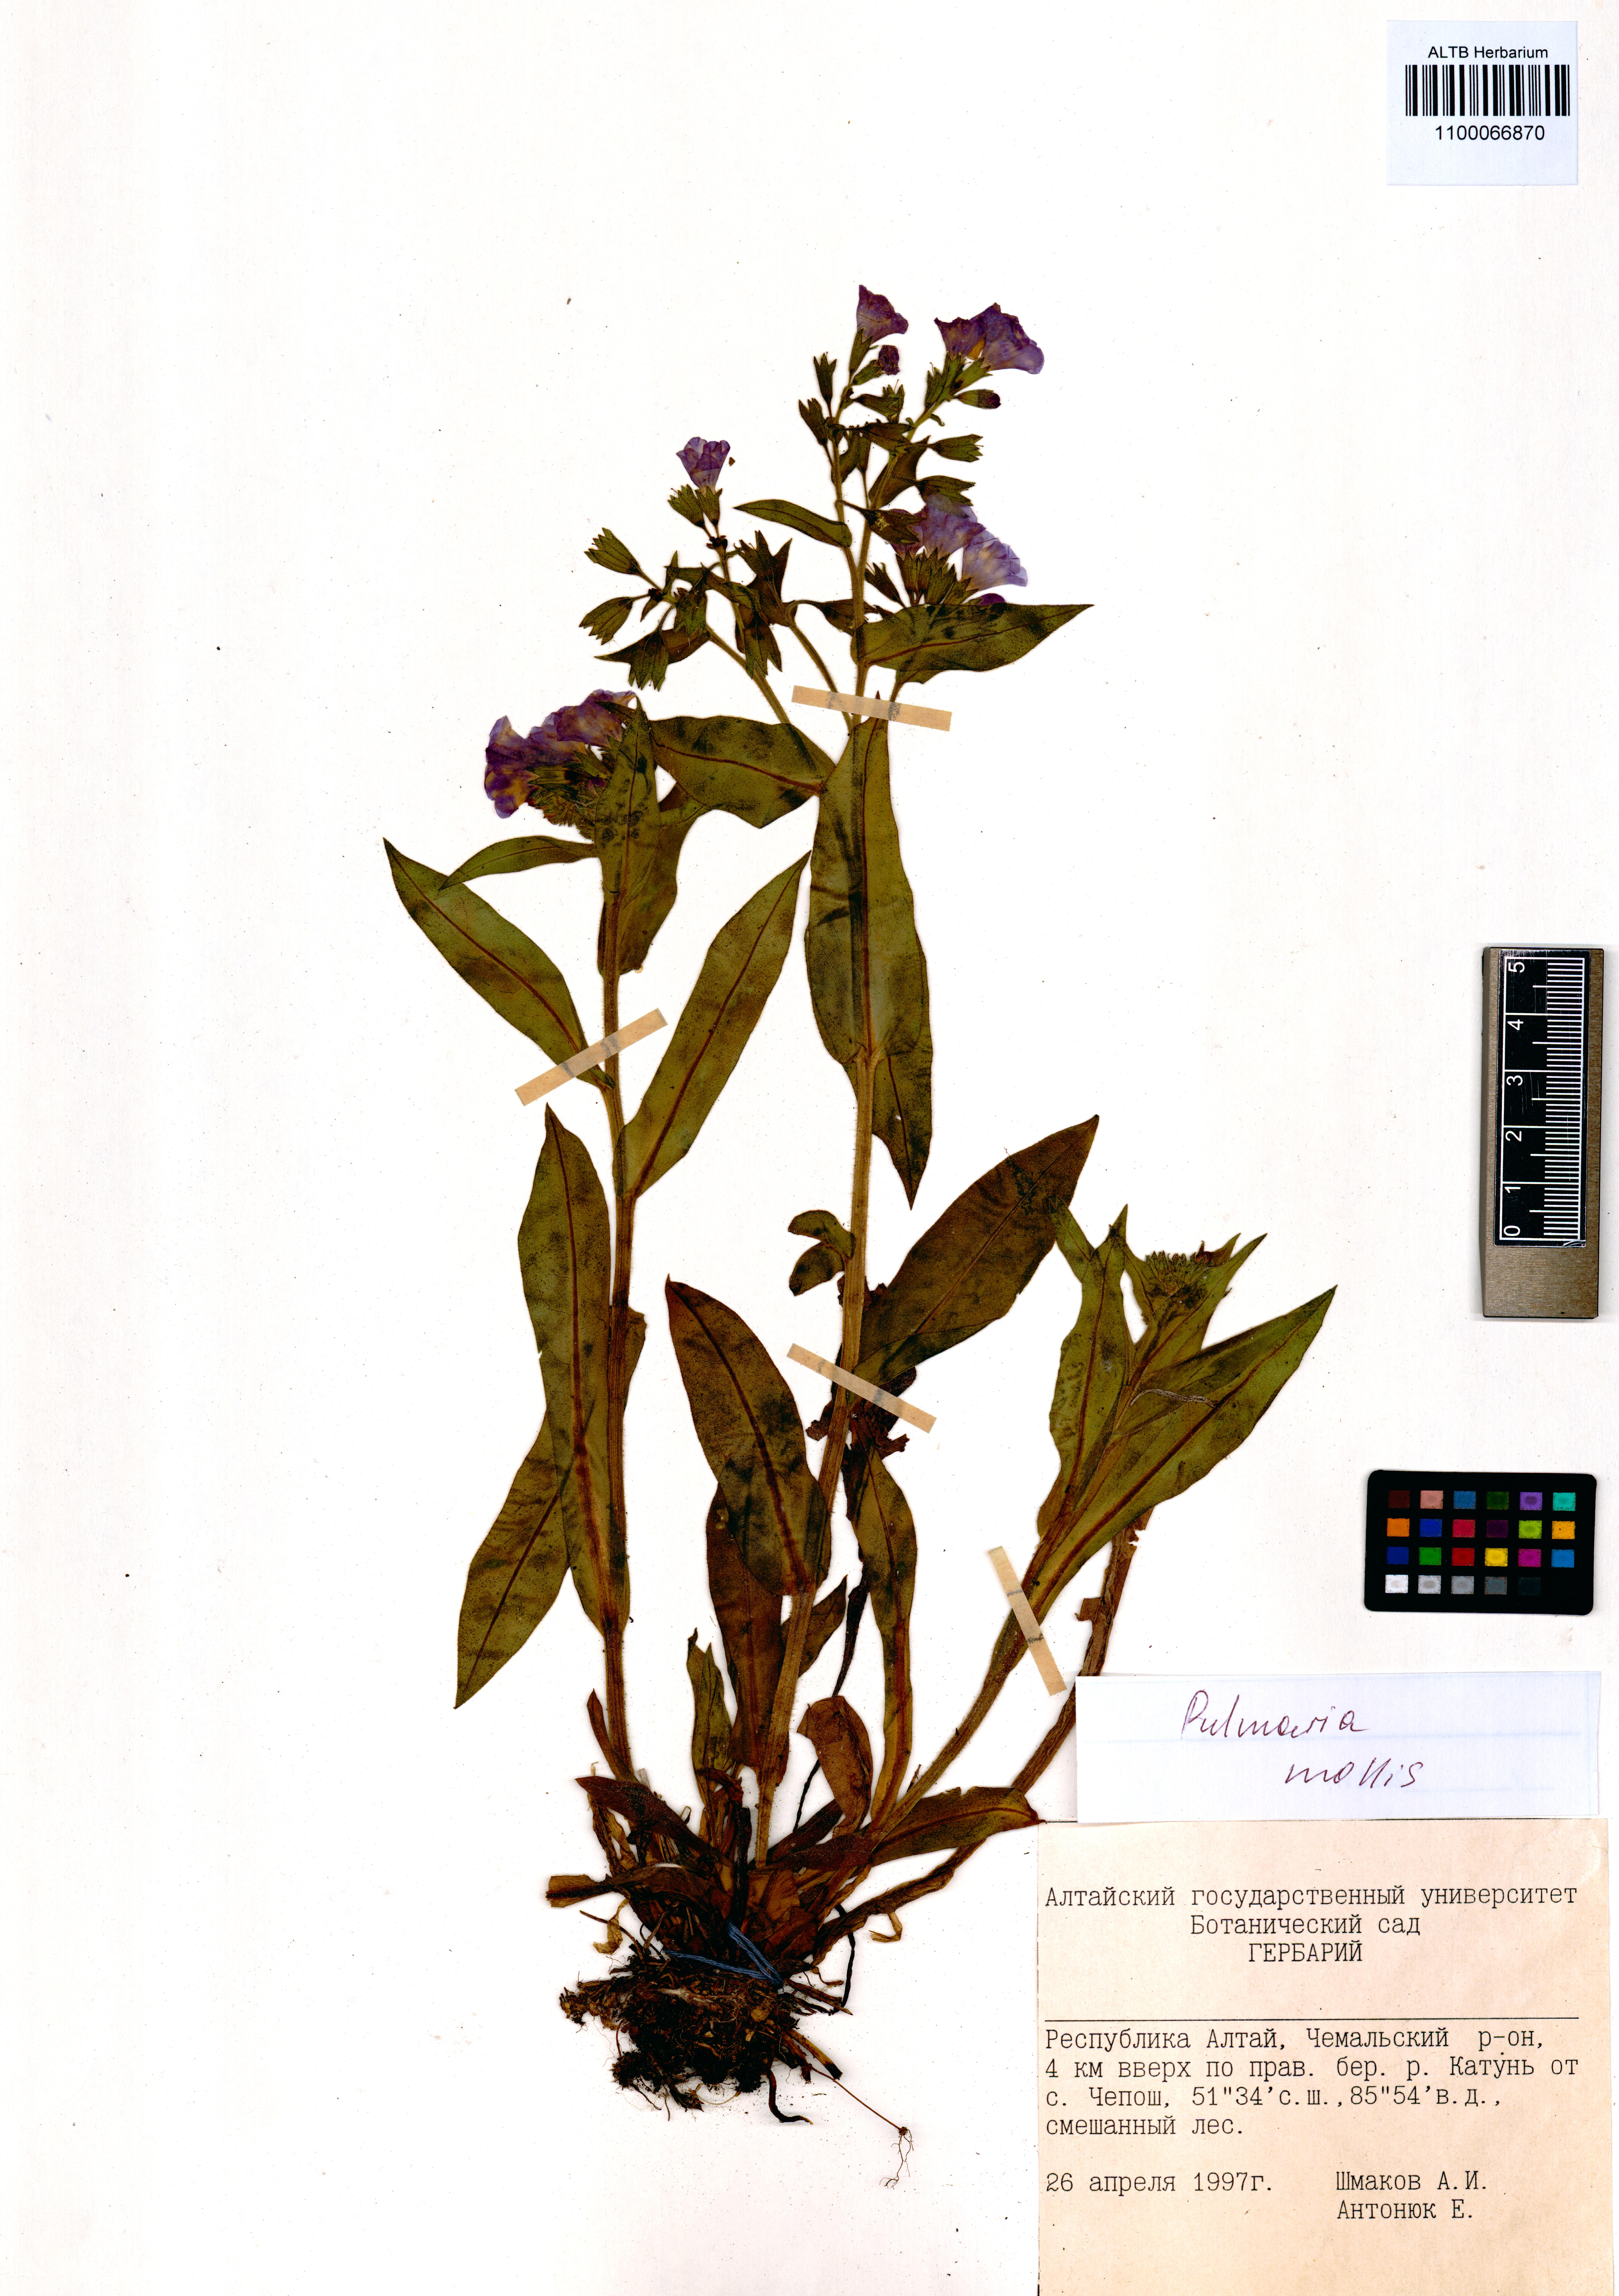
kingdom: Plantae
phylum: Tracheophyta
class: Magnoliopsida
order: Boraginales
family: Boraginaceae
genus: Pulmonaria
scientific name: Pulmonaria mollis
